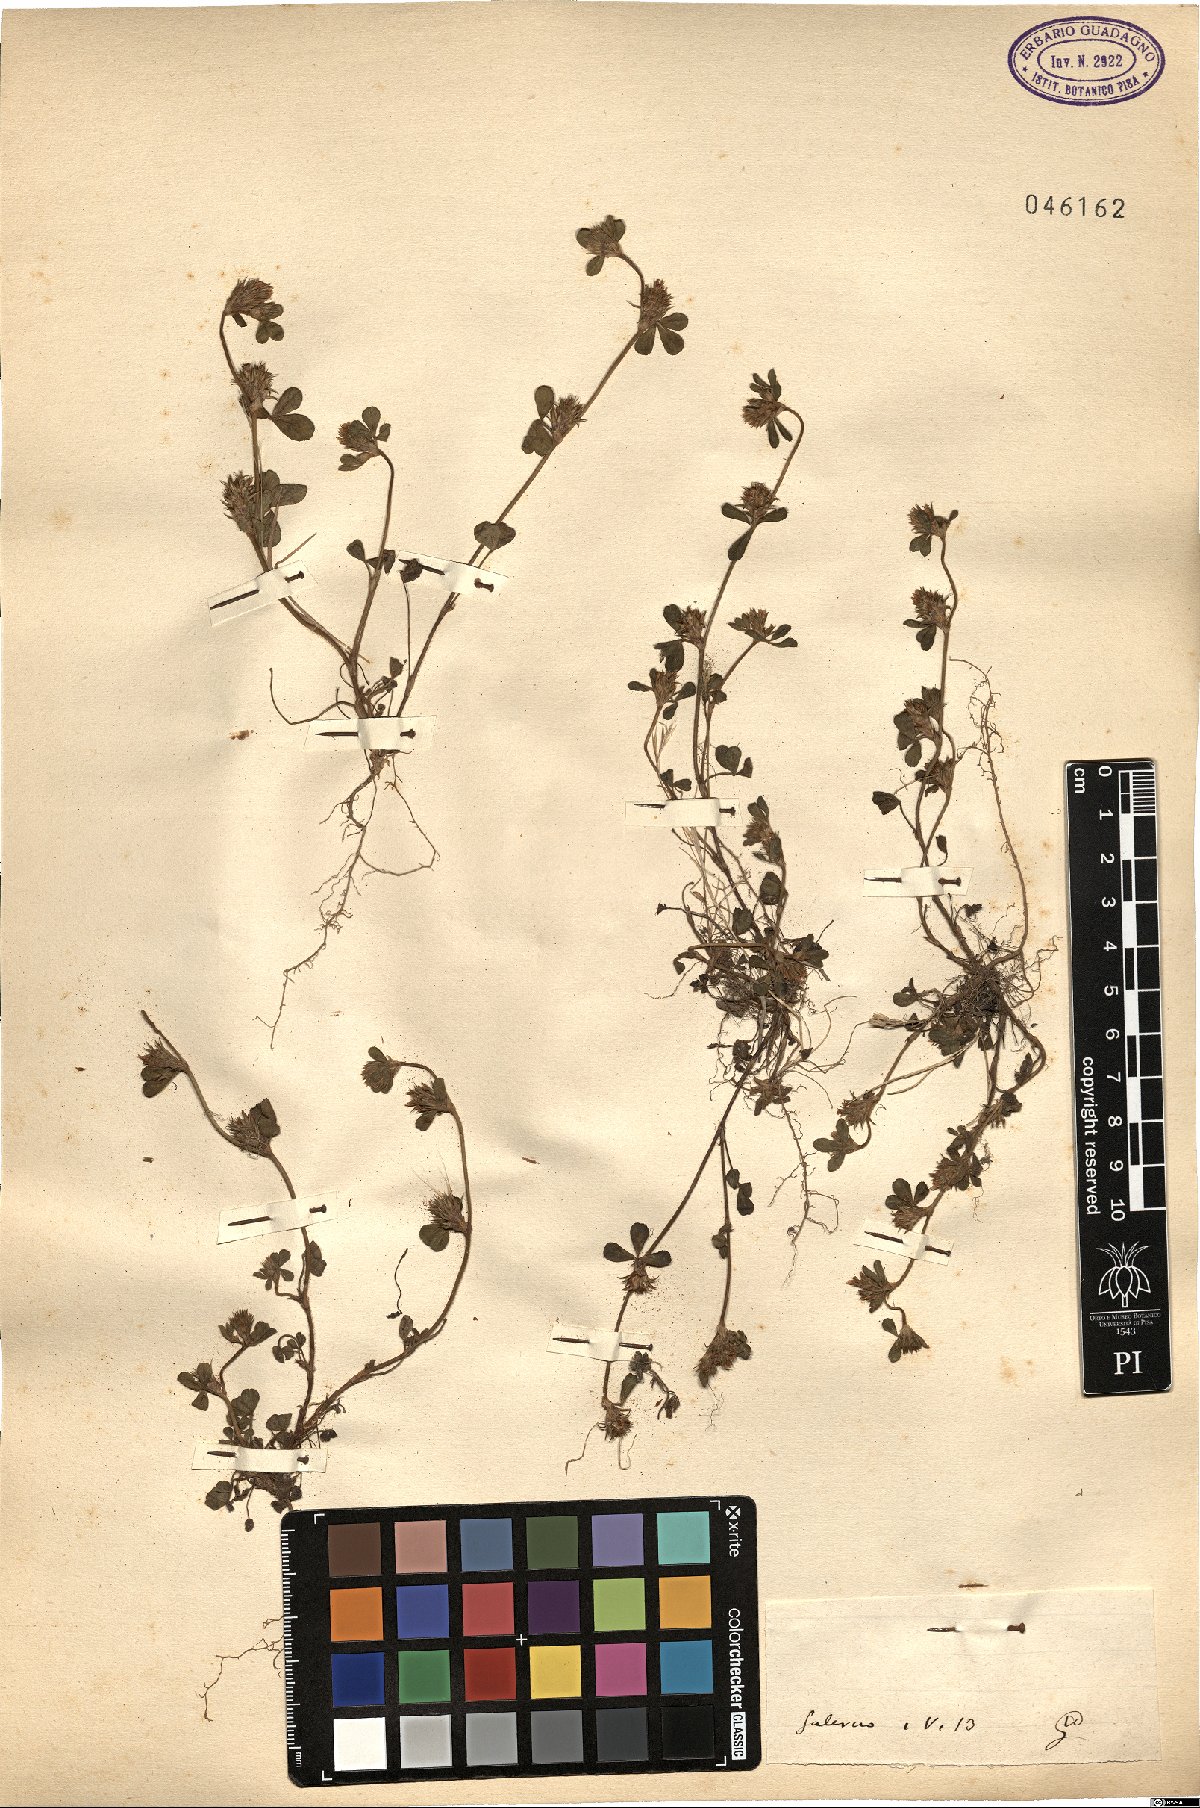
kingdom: Plantae
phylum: Tracheophyta
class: Magnoliopsida
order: Fabales
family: Fabaceae
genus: Trifolium
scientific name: Trifolium
